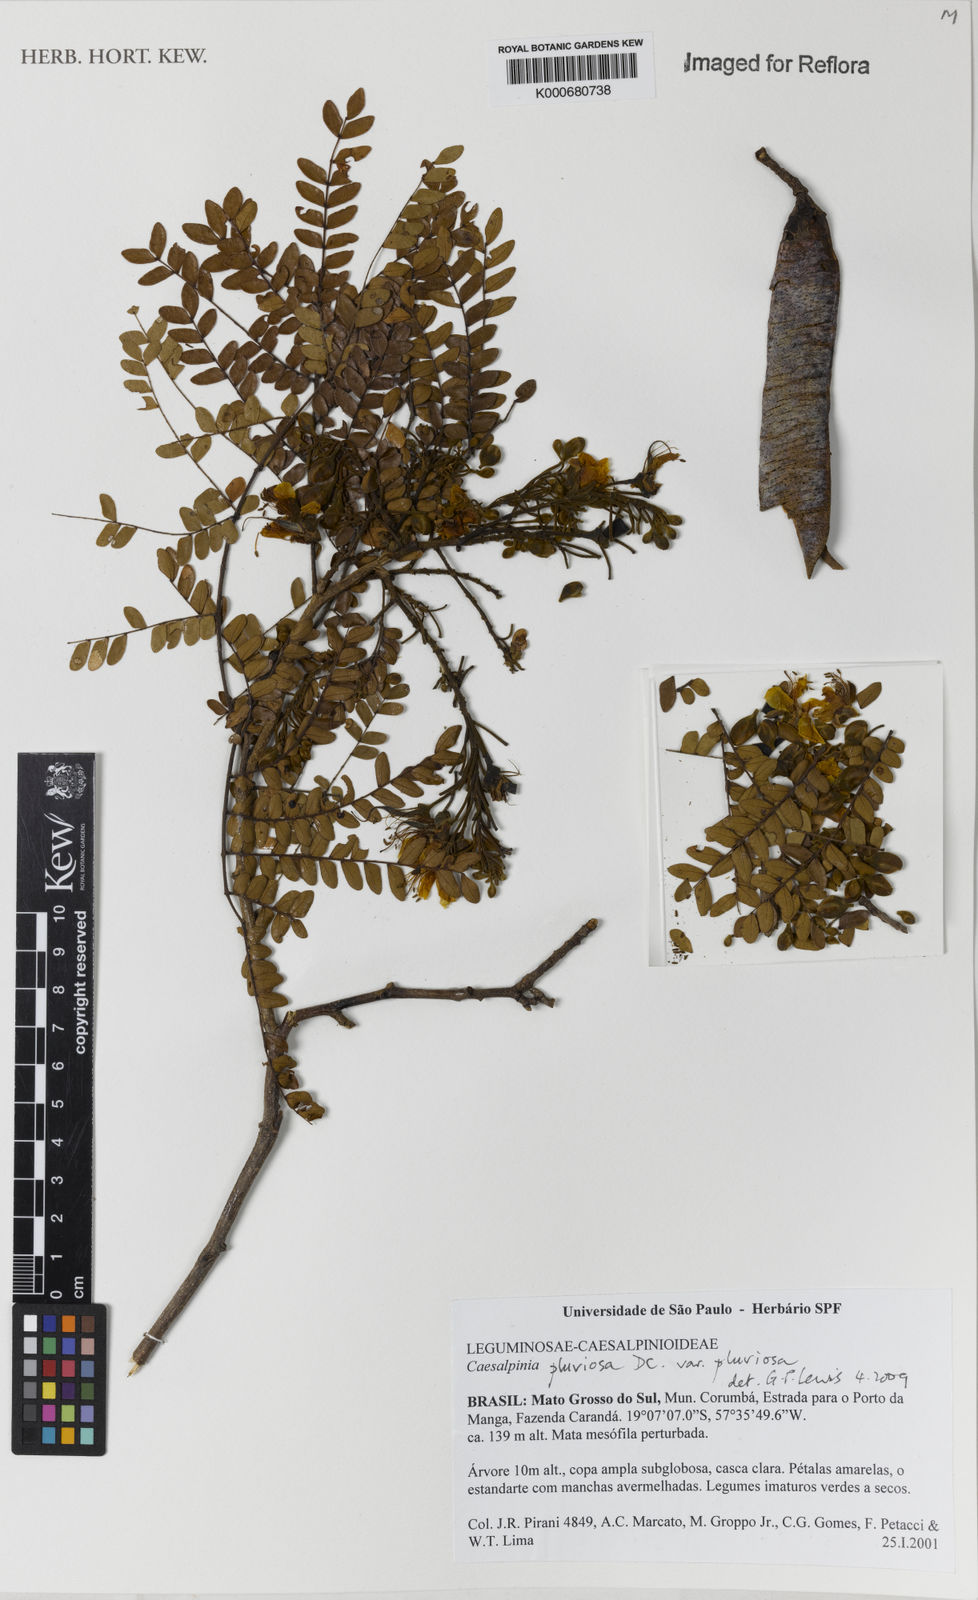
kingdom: Plantae
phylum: Tracheophyta
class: Magnoliopsida
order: Fabales
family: Fabaceae
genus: Cenostigma
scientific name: Cenostigma pluviosum
